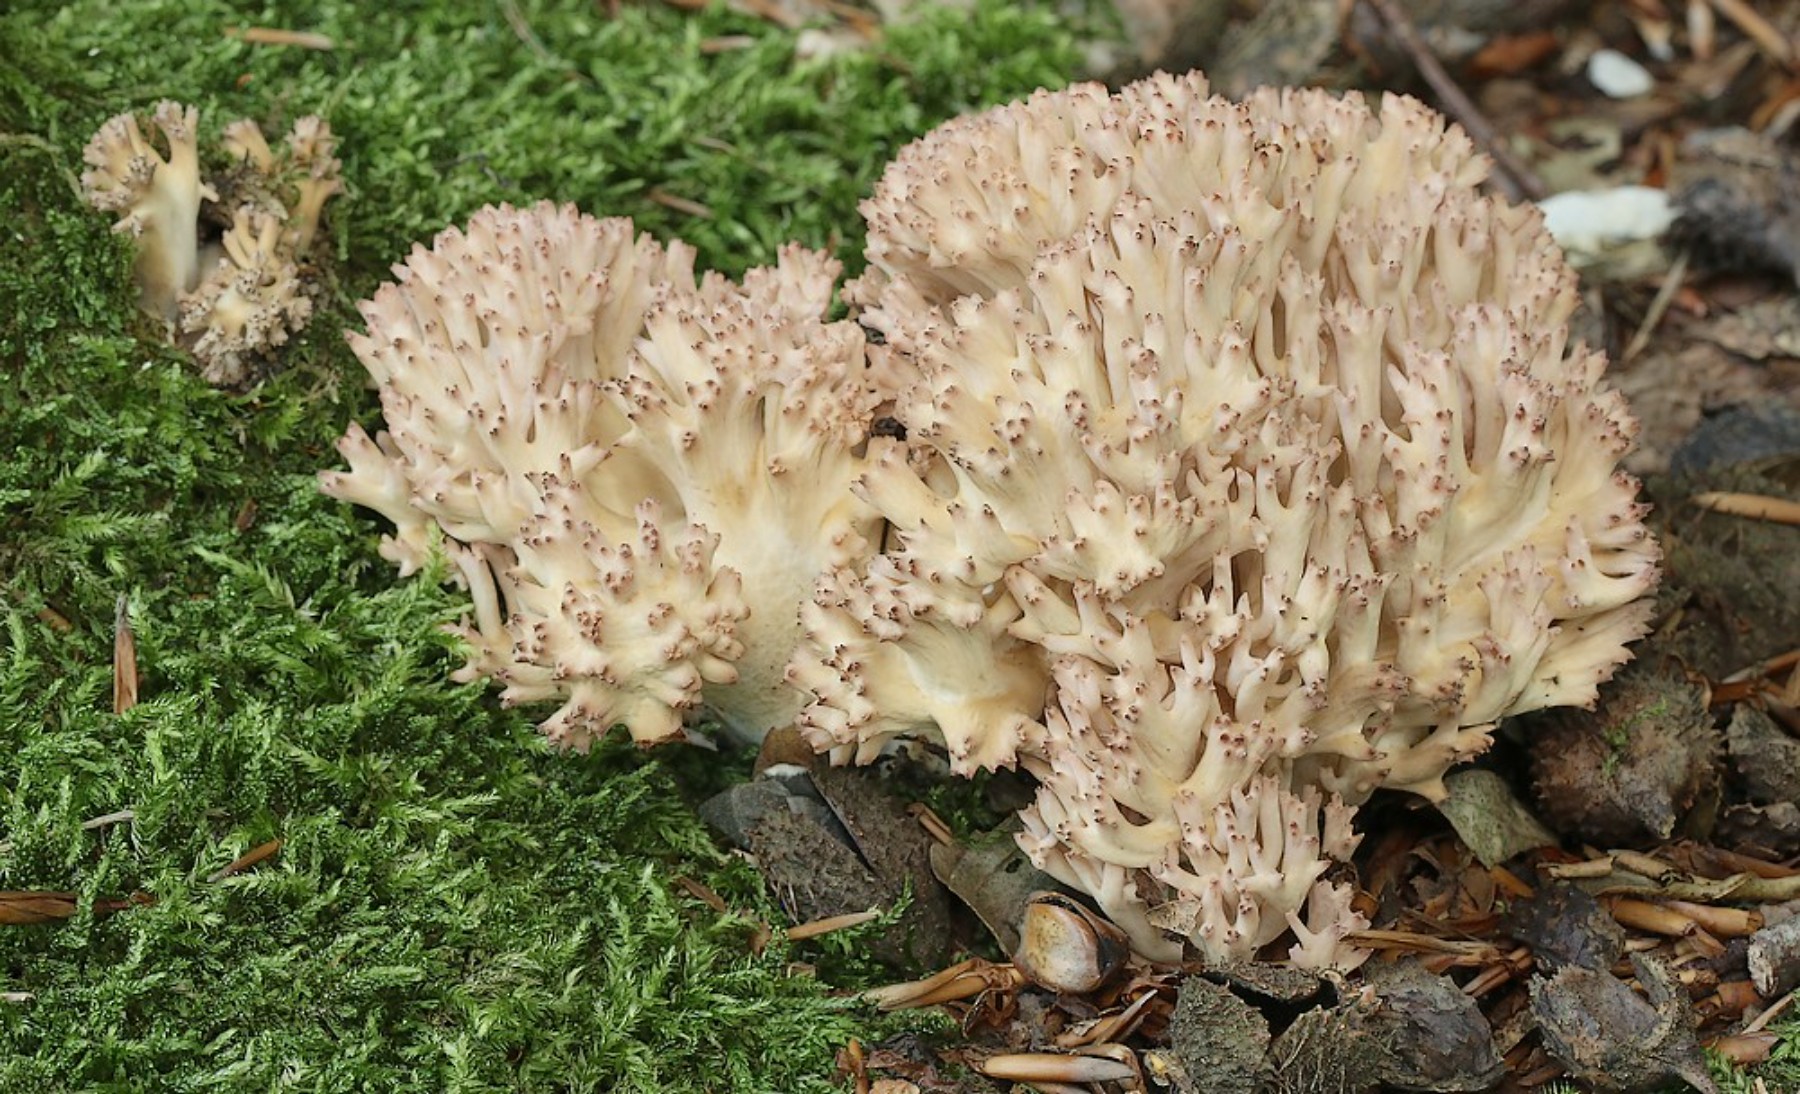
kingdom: Fungi
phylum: Basidiomycota
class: Agaricomycetes
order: Gomphales
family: Gomphaceae
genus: Ramaria
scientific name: Ramaria botrytis
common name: drue-koralsvamp
